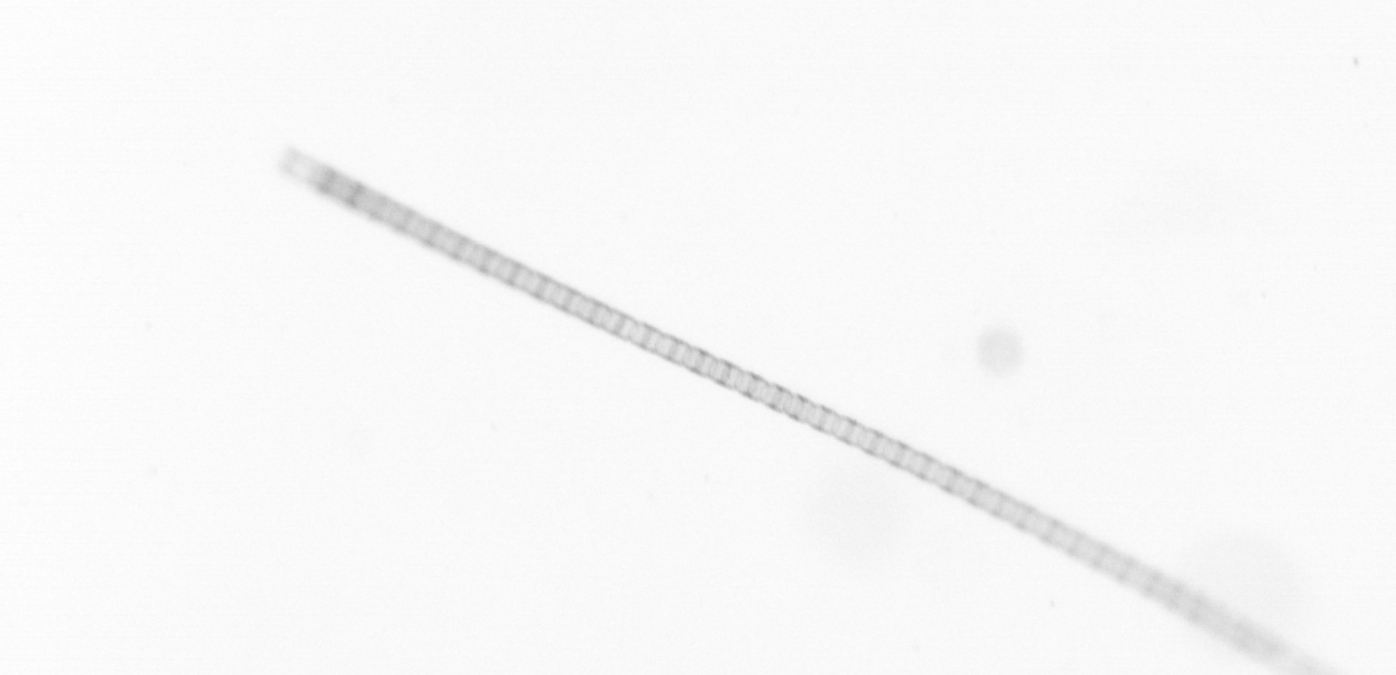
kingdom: Chromista
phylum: Ochrophyta
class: Bacillariophyceae
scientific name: Bacillariophyceae
